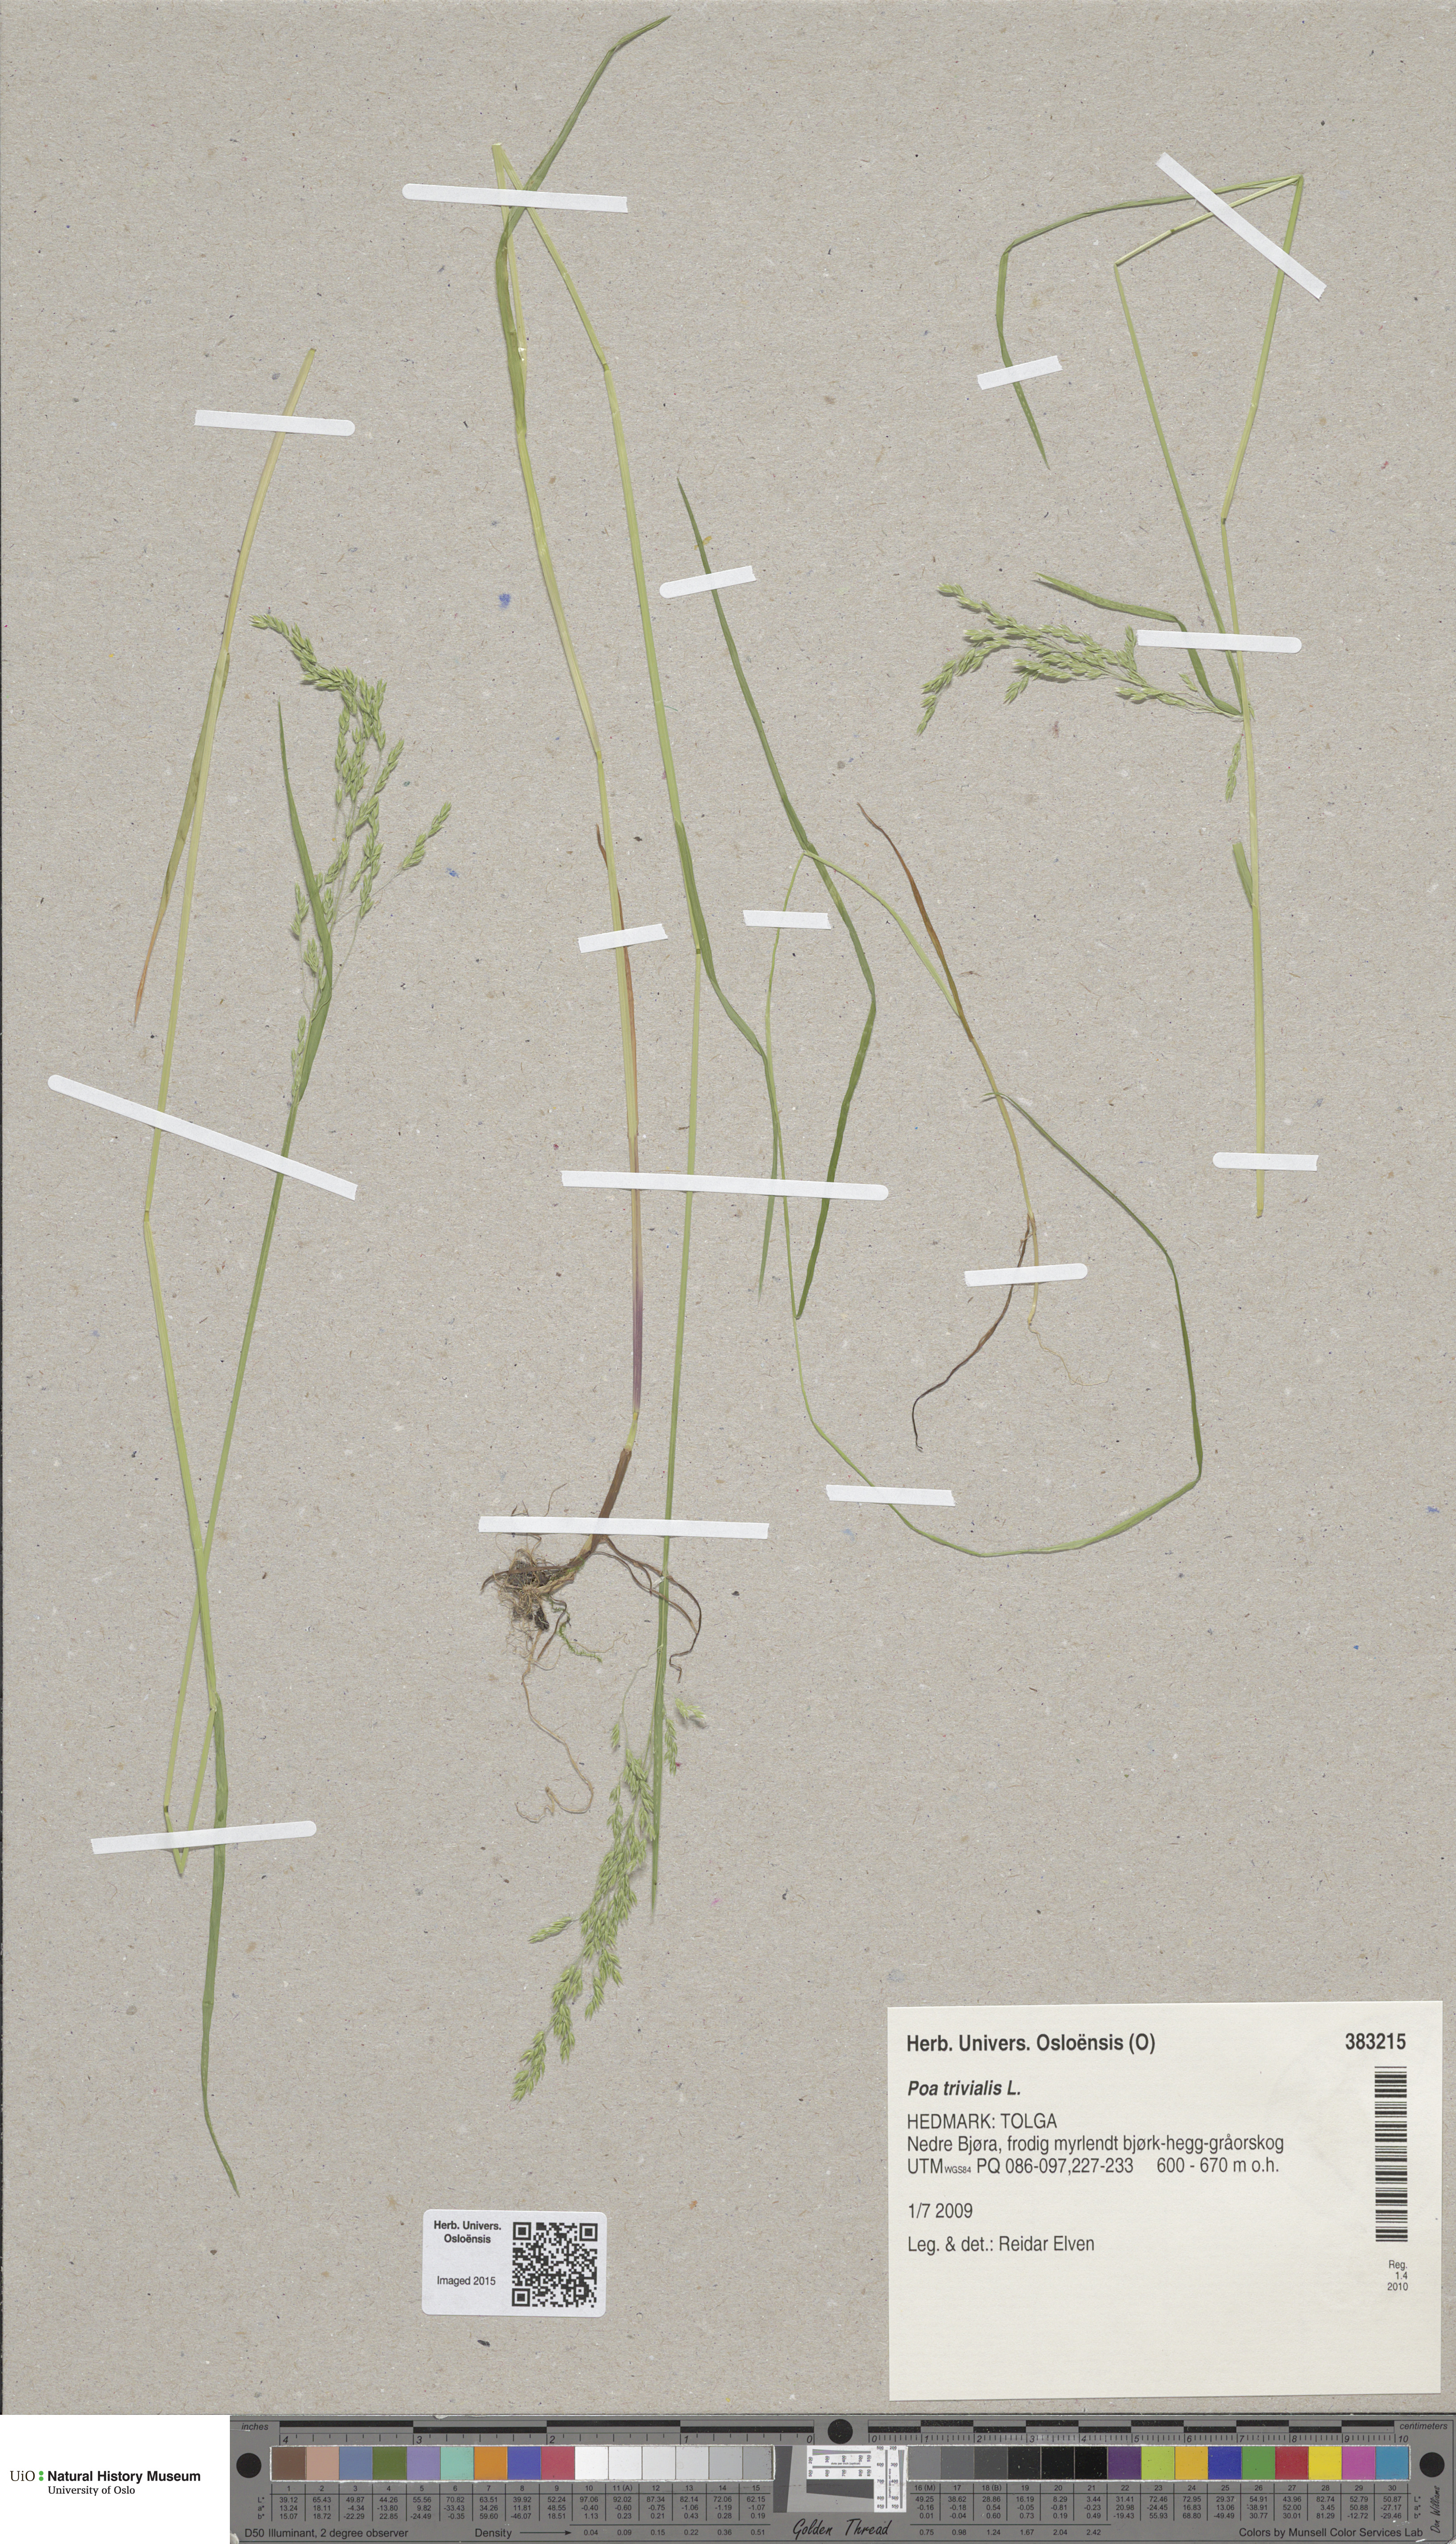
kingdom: Plantae
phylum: Tracheophyta
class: Liliopsida
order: Poales
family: Poaceae
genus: Poa
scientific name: Poa trivialis
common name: Rough bluegrass
